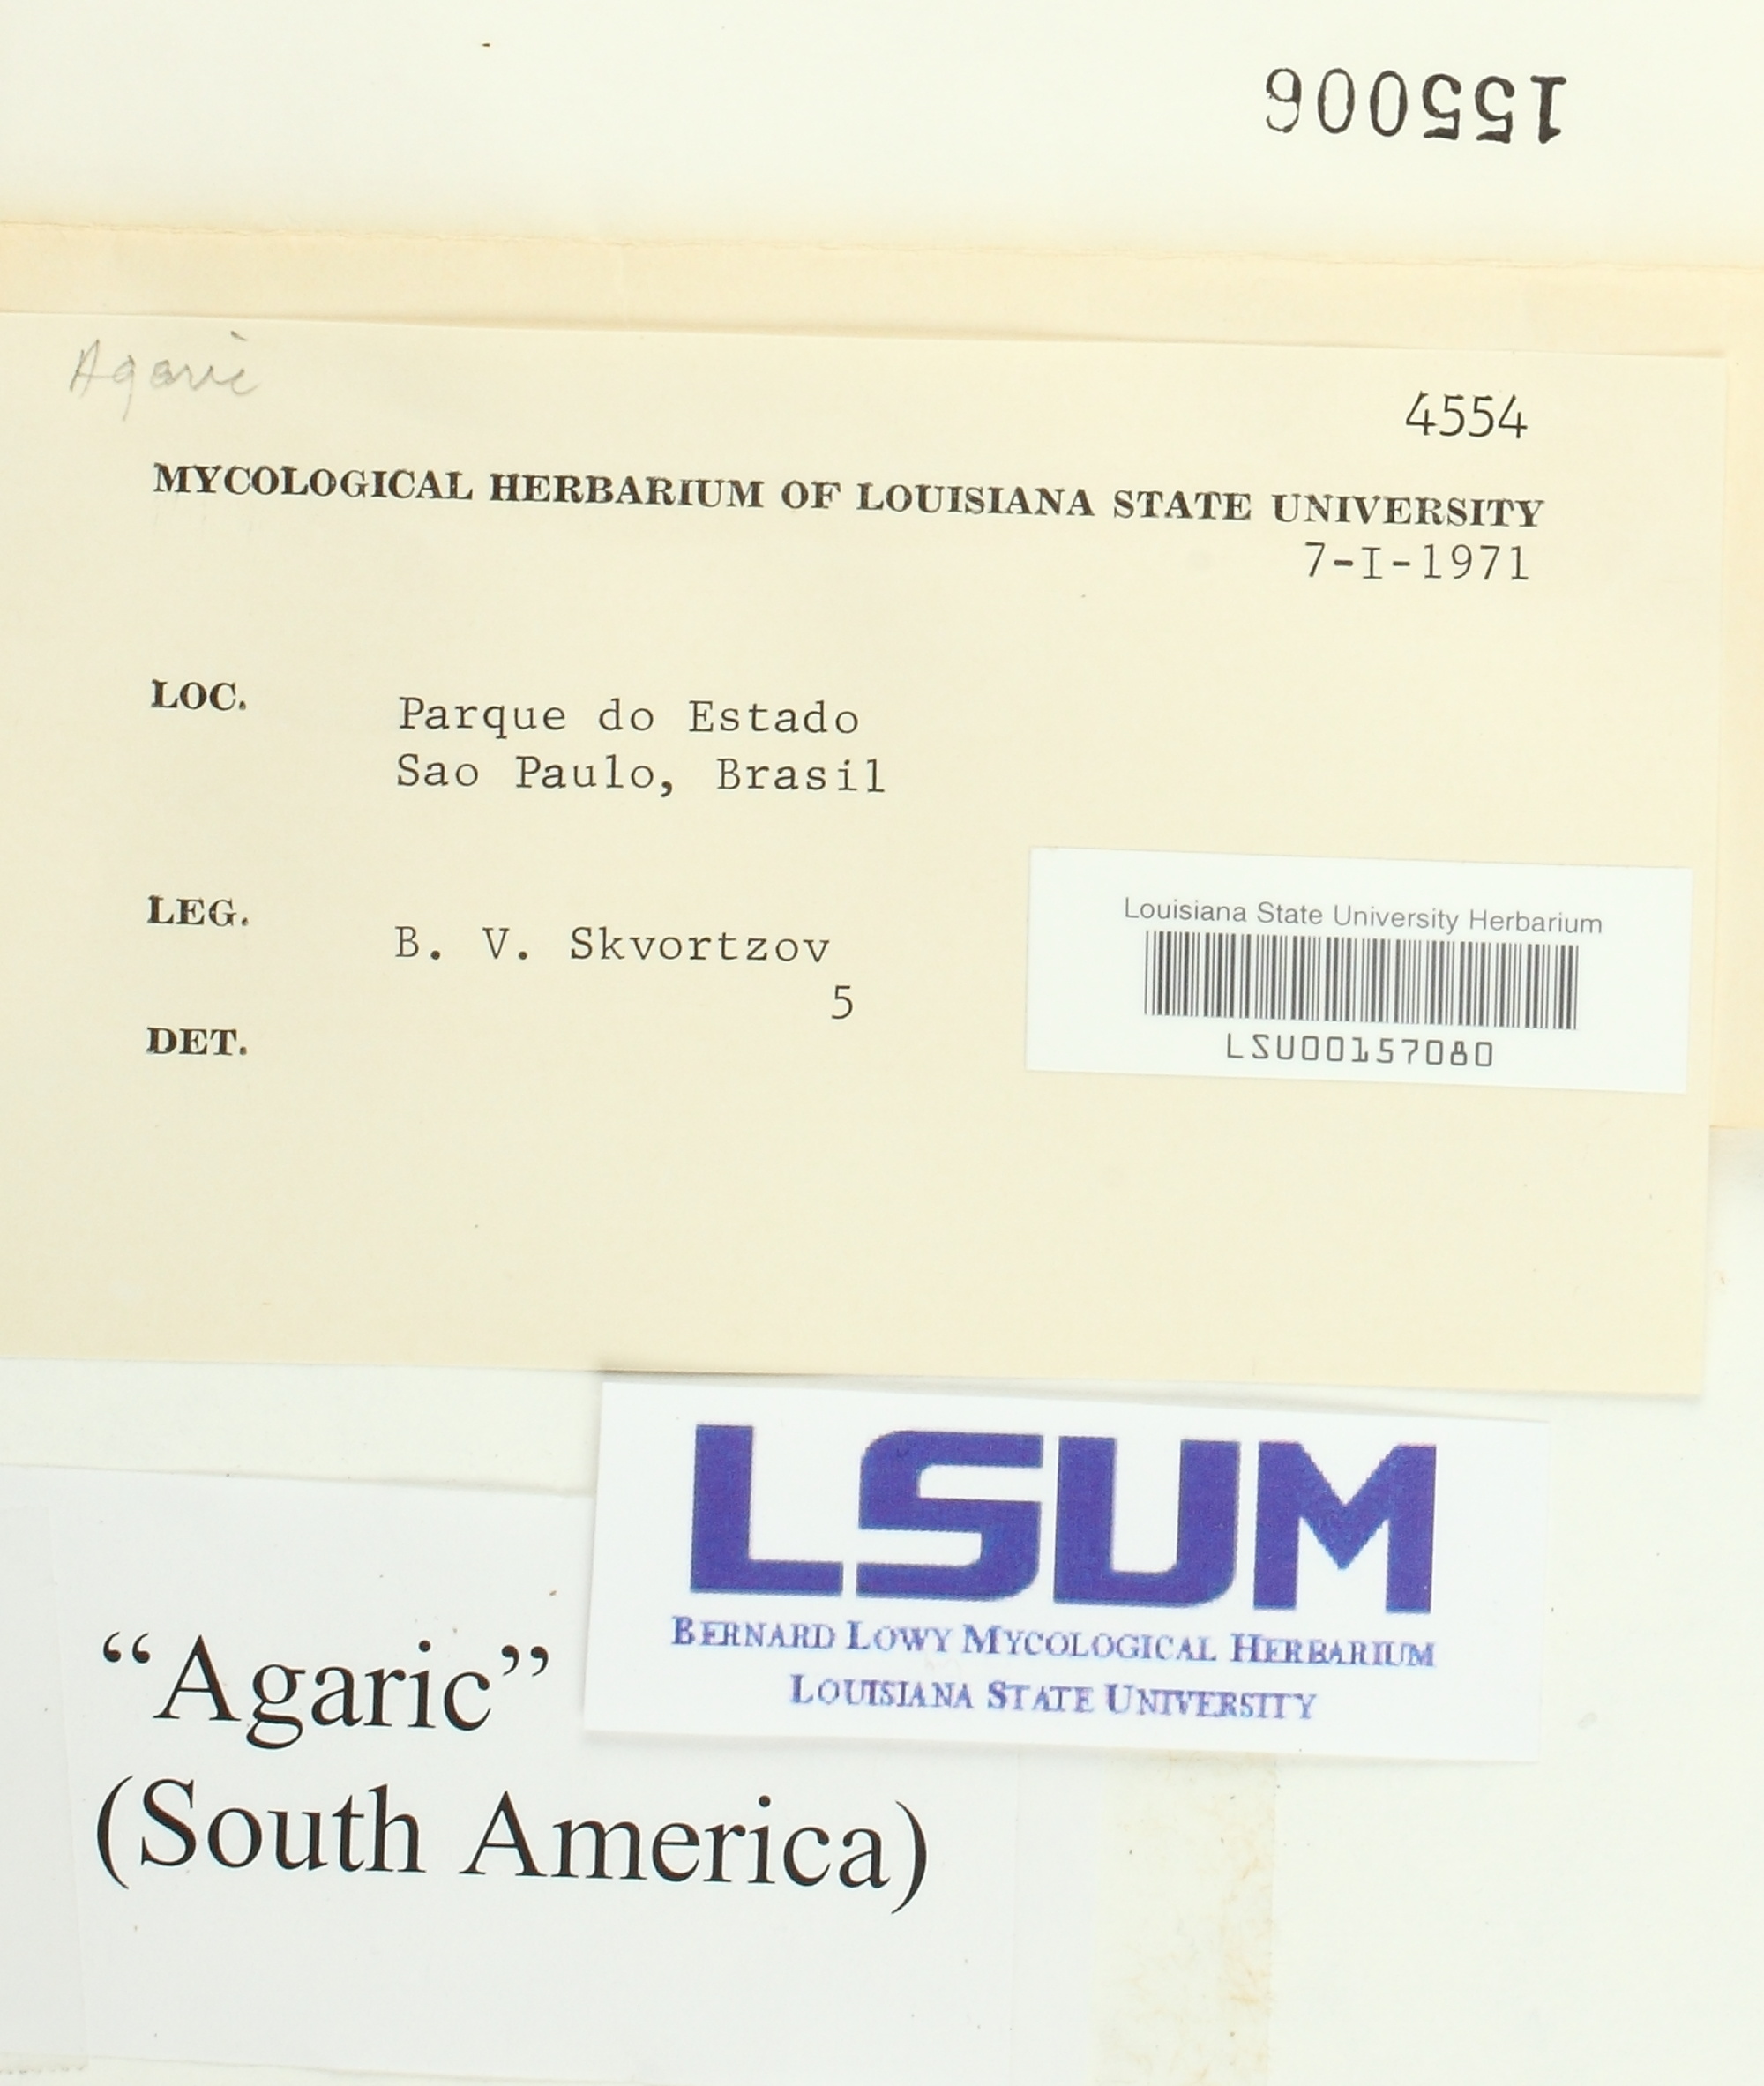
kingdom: Fungi
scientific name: Fungi
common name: Fungi
